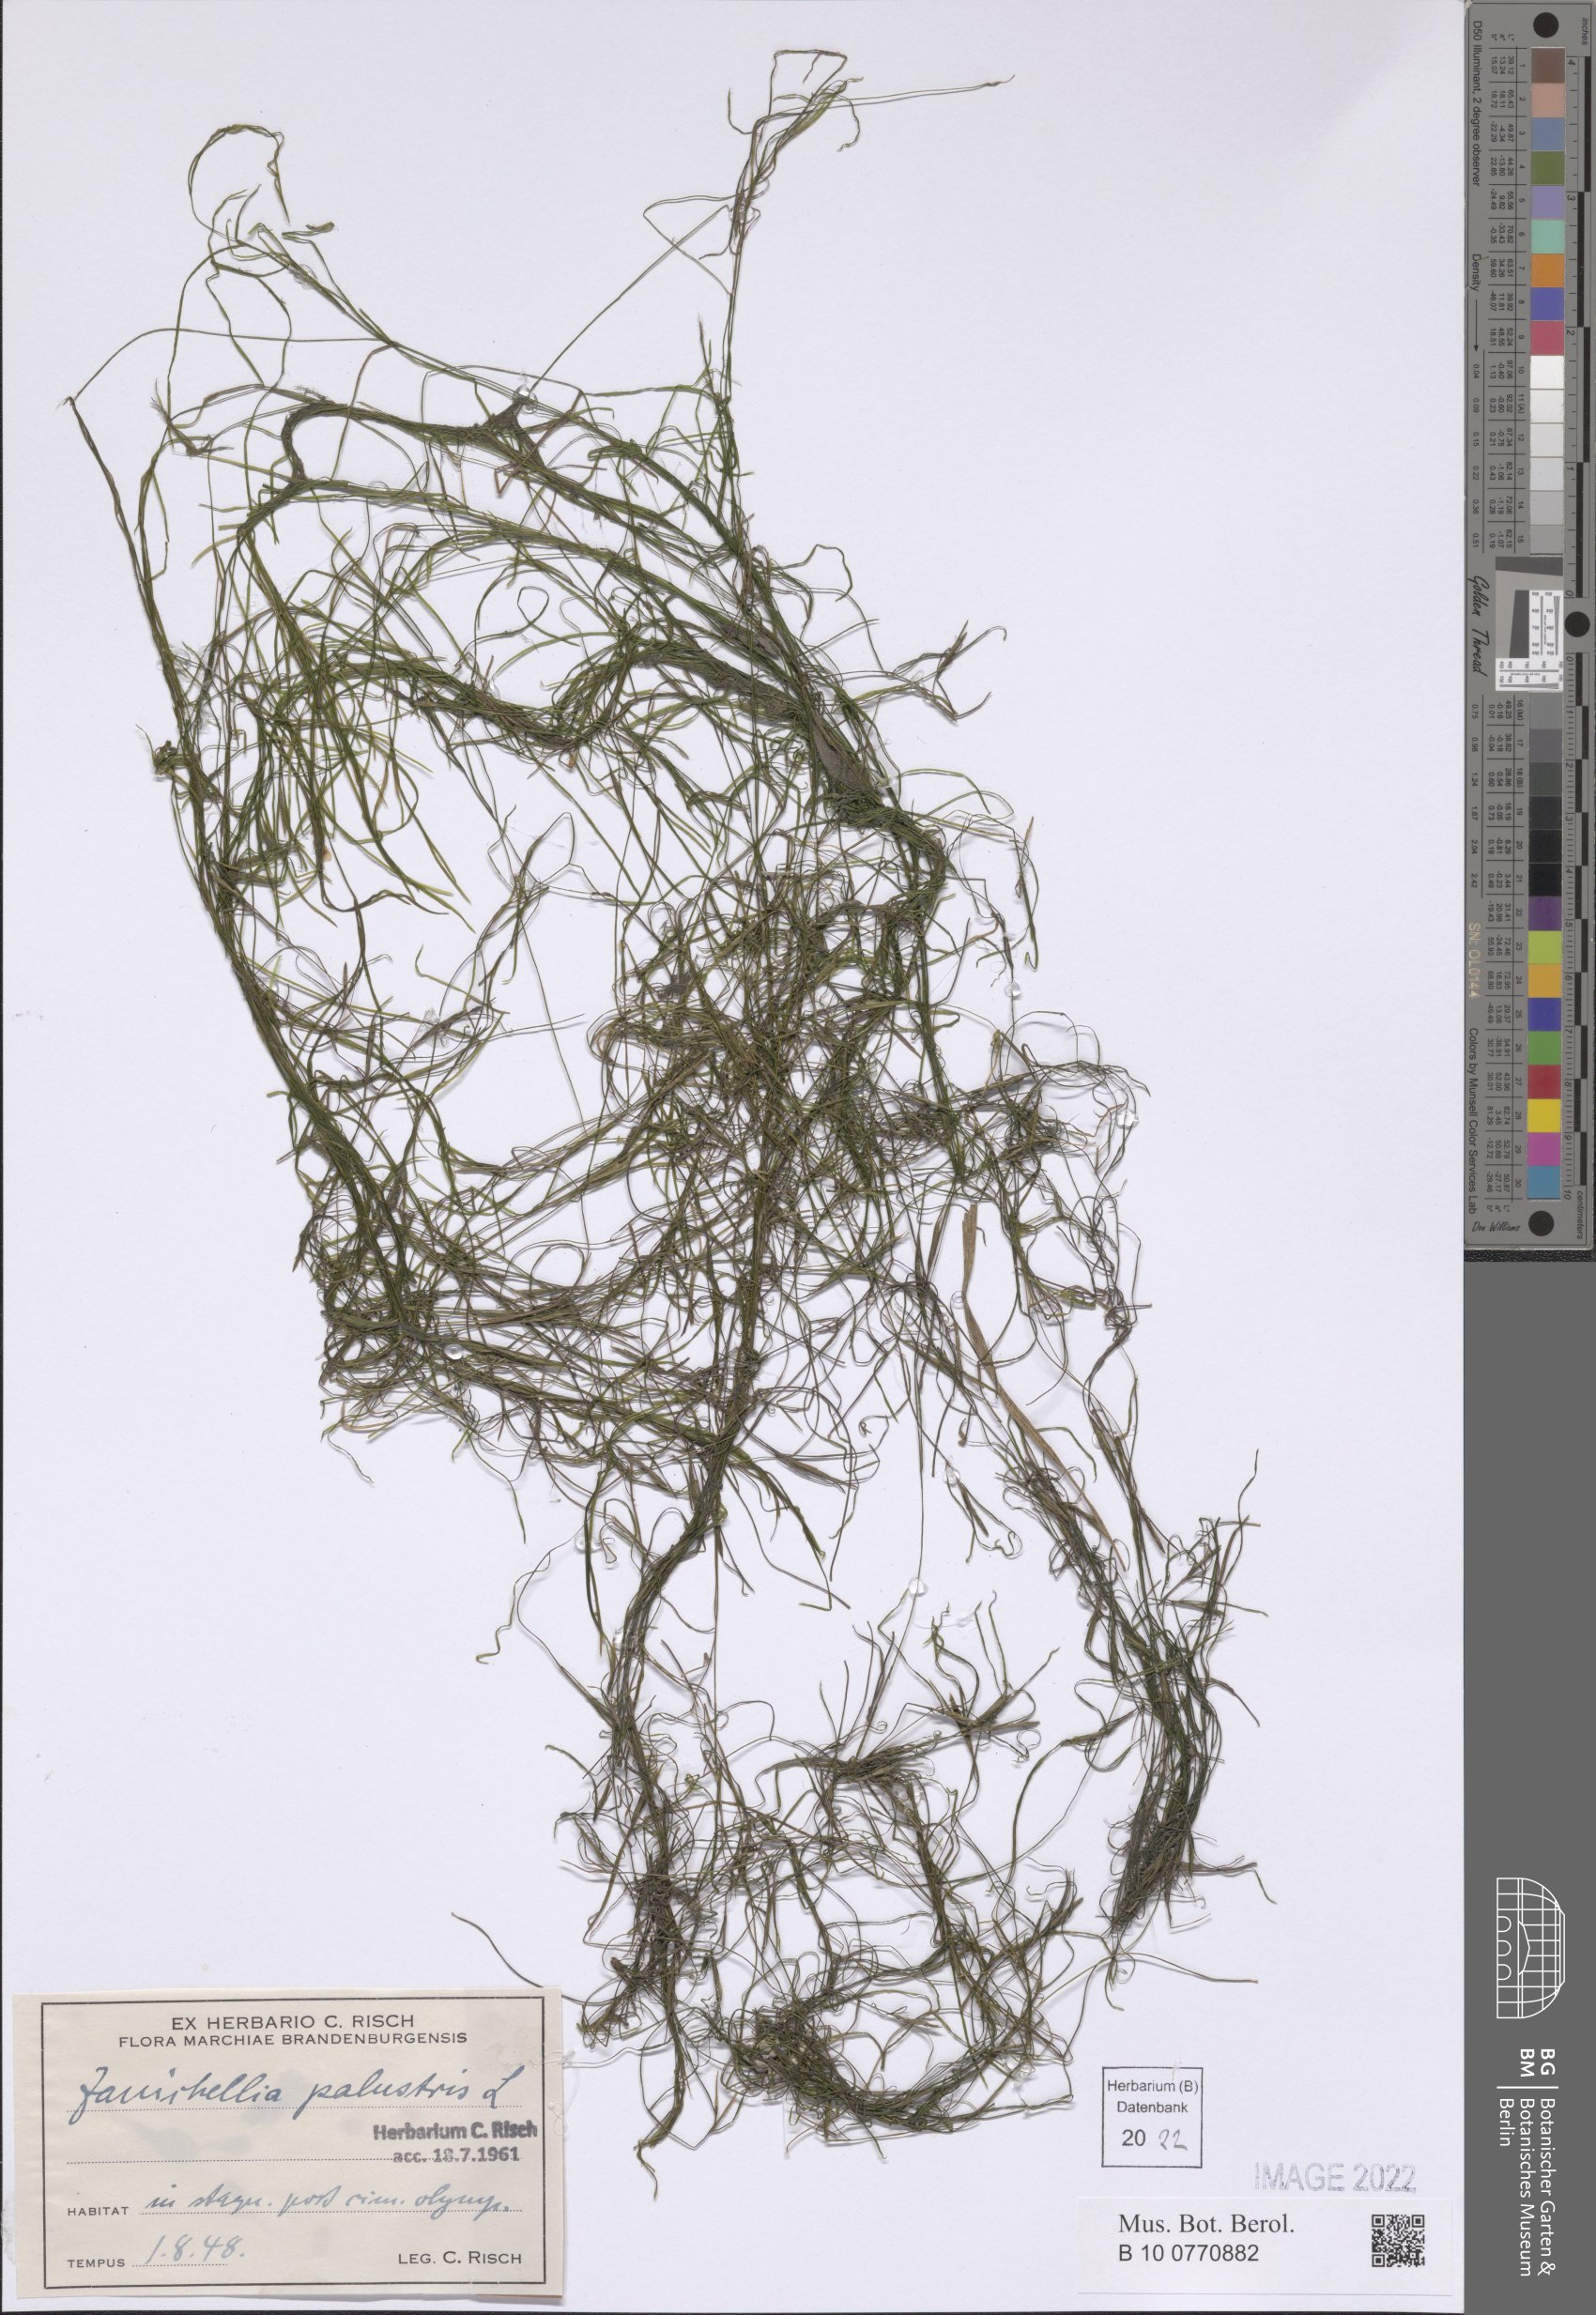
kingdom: Plantae
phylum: Tracheophyta
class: Liliopsida
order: Alismatales
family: Potamogetonaceae
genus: Zannichellia
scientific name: Zannichellia palustris
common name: Horned pondweed
